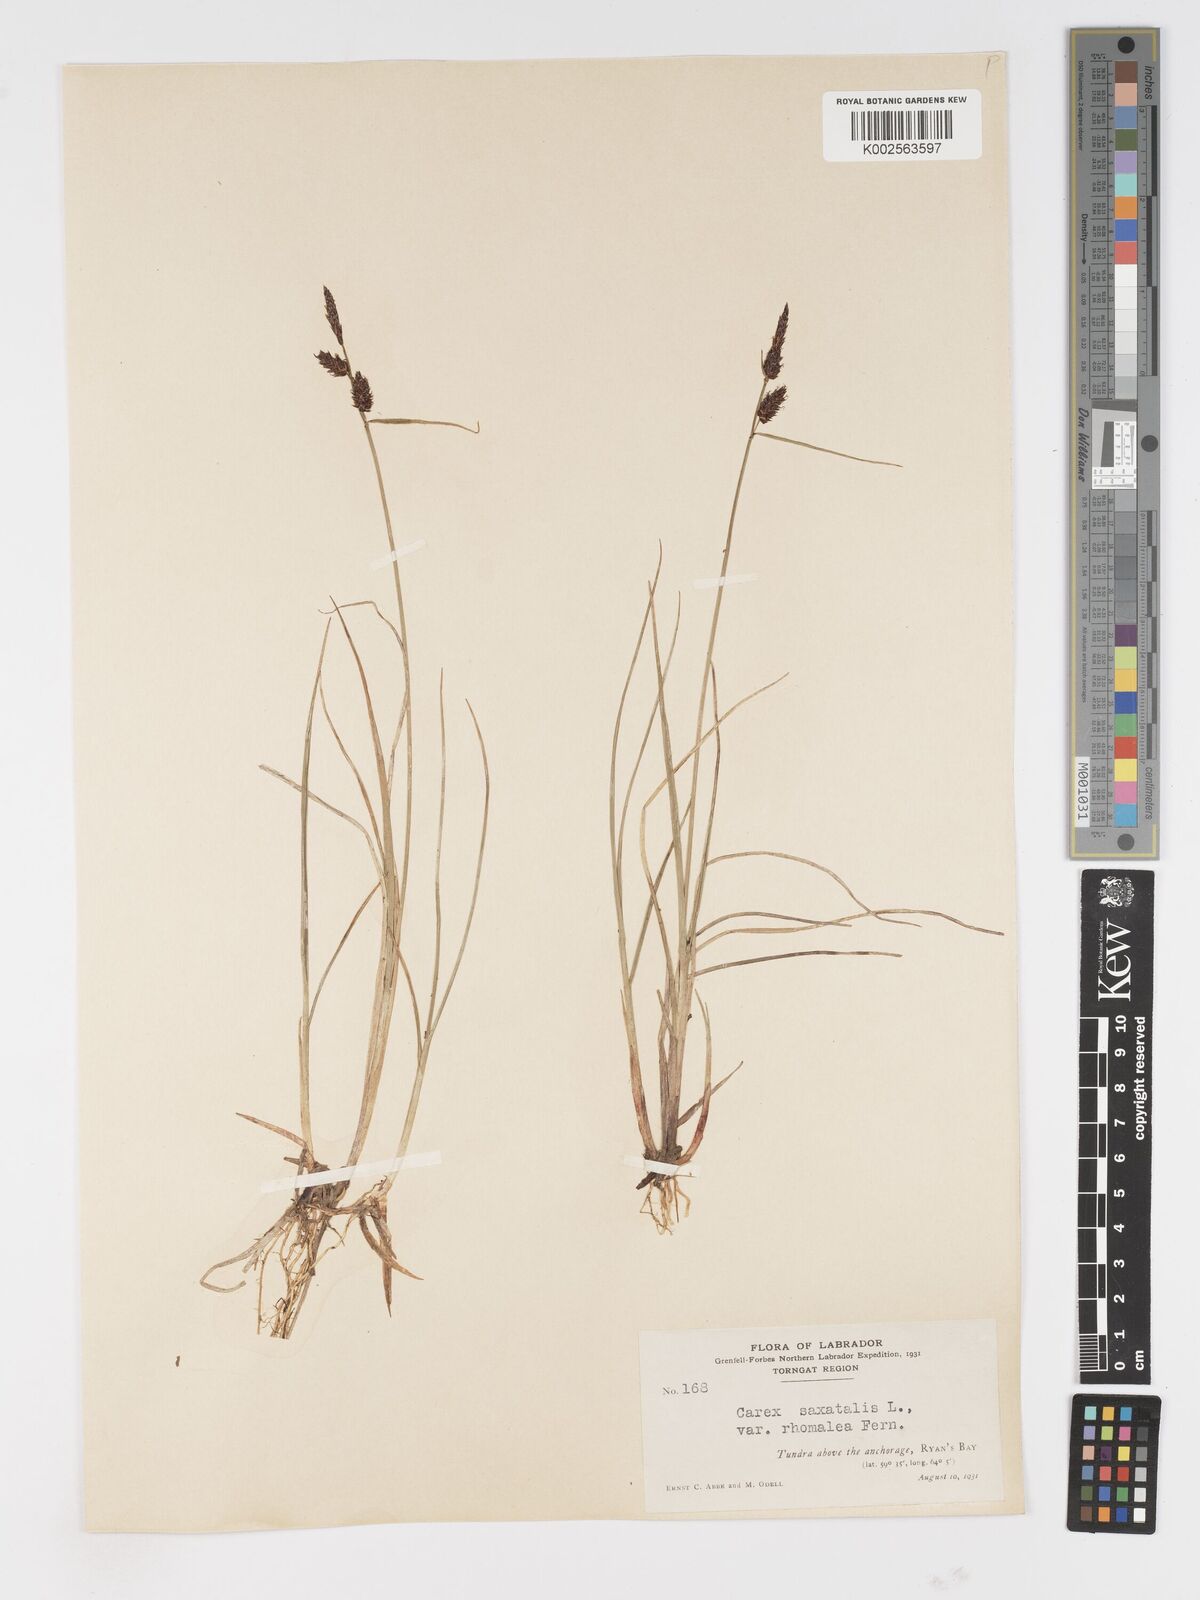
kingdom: Plantae
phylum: Tracheophyta
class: Liliopsida
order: Poales
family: Cyperaceae
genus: Carex
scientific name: Carex miliaris
